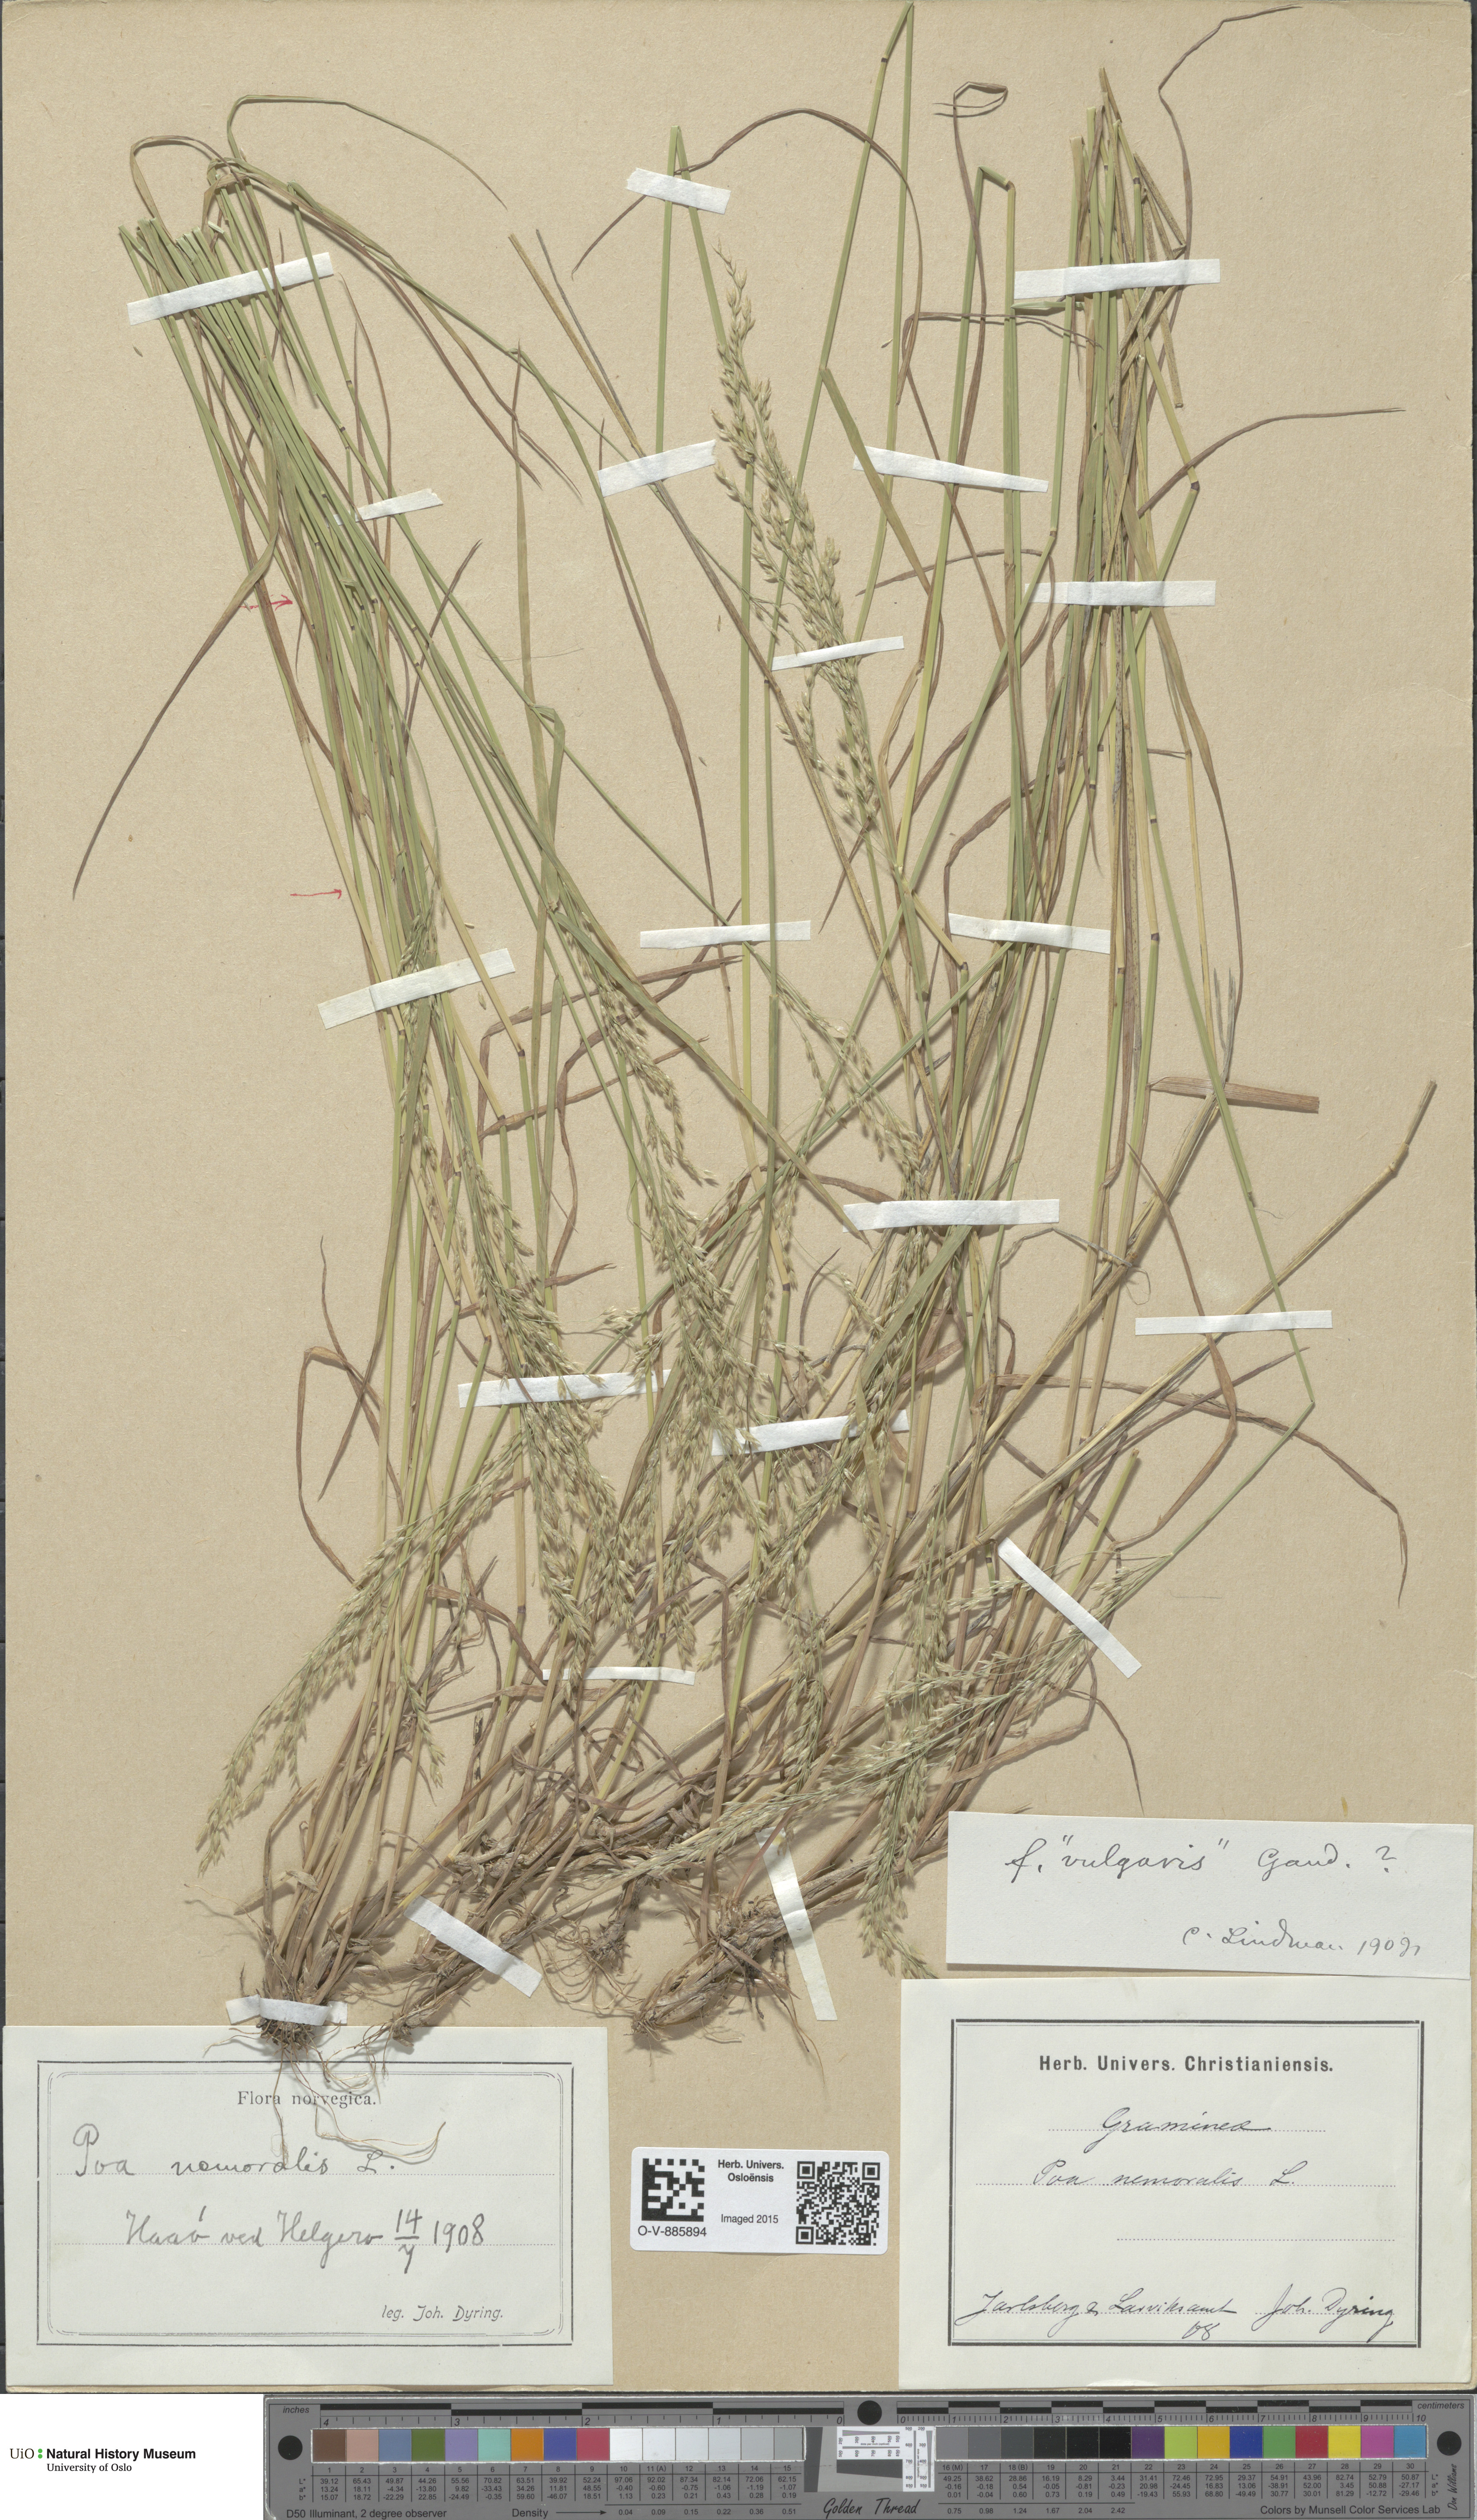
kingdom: Plantae
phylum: Tracheophyta
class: Liliopsida
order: Poales
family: Poaceae
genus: Poa
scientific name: Poa nemoralis
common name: Wood bluegrass
